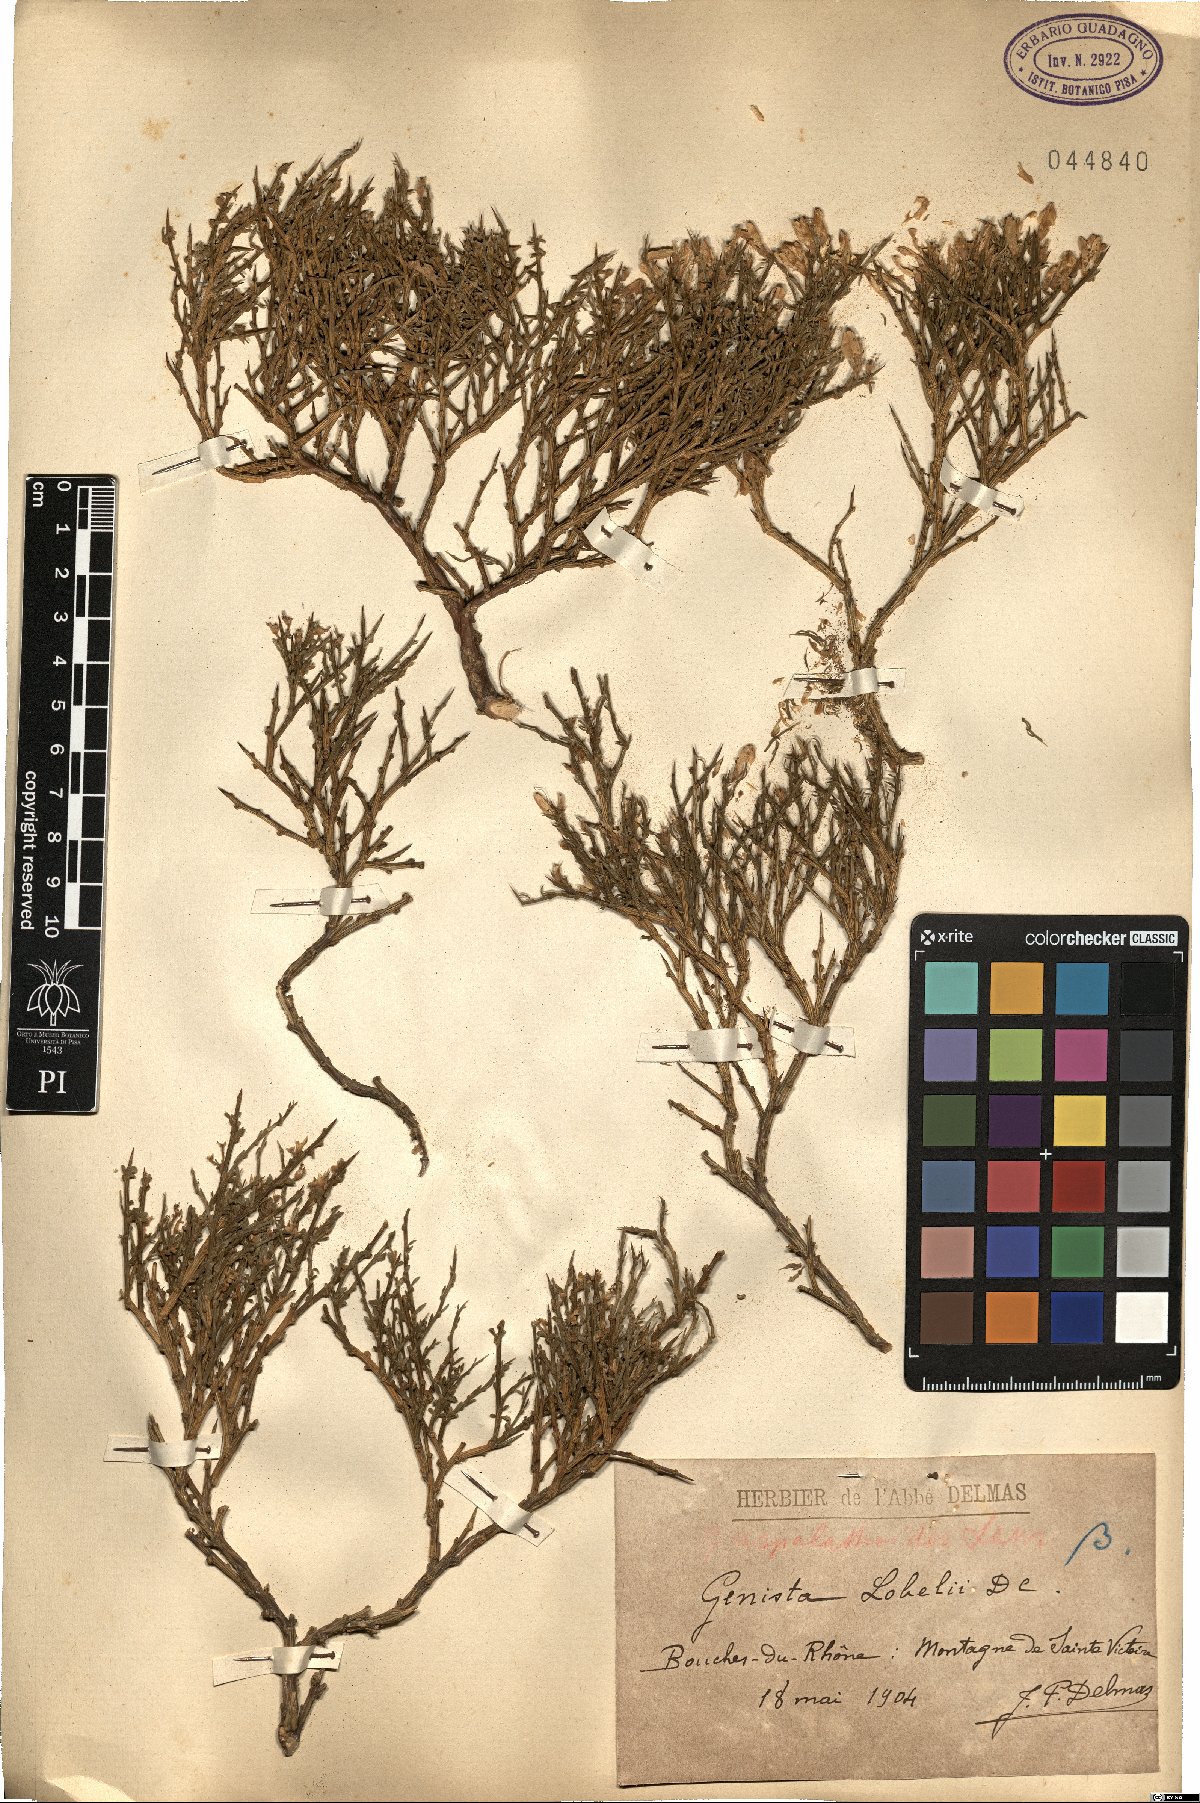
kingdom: Plantae
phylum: Tracheophyta
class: Magnoliopsida
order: Fabales
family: Fabaceae
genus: Genista
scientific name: Genista lobelii
